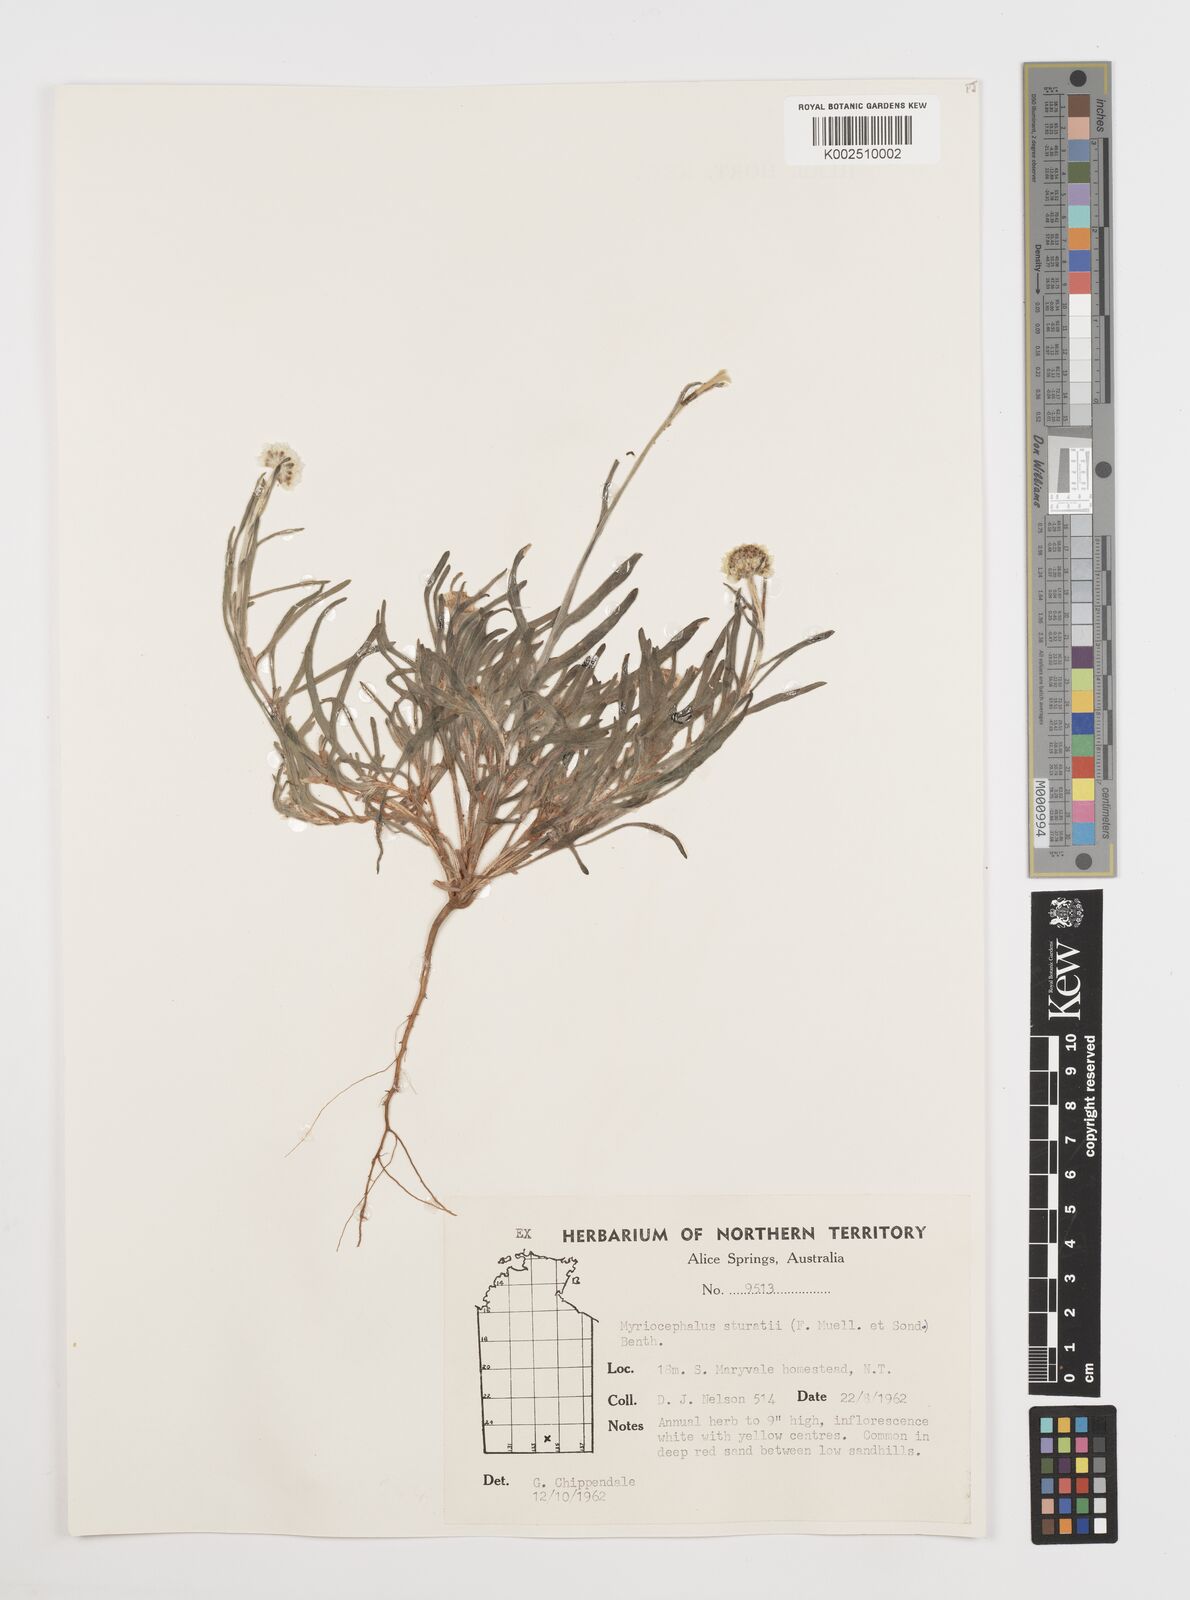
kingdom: Plantae
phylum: Tracheophyta
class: Magnoliopsida
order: Asterales
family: Asteraceae
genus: Polycalymma
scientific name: Polycalymma stuartii
